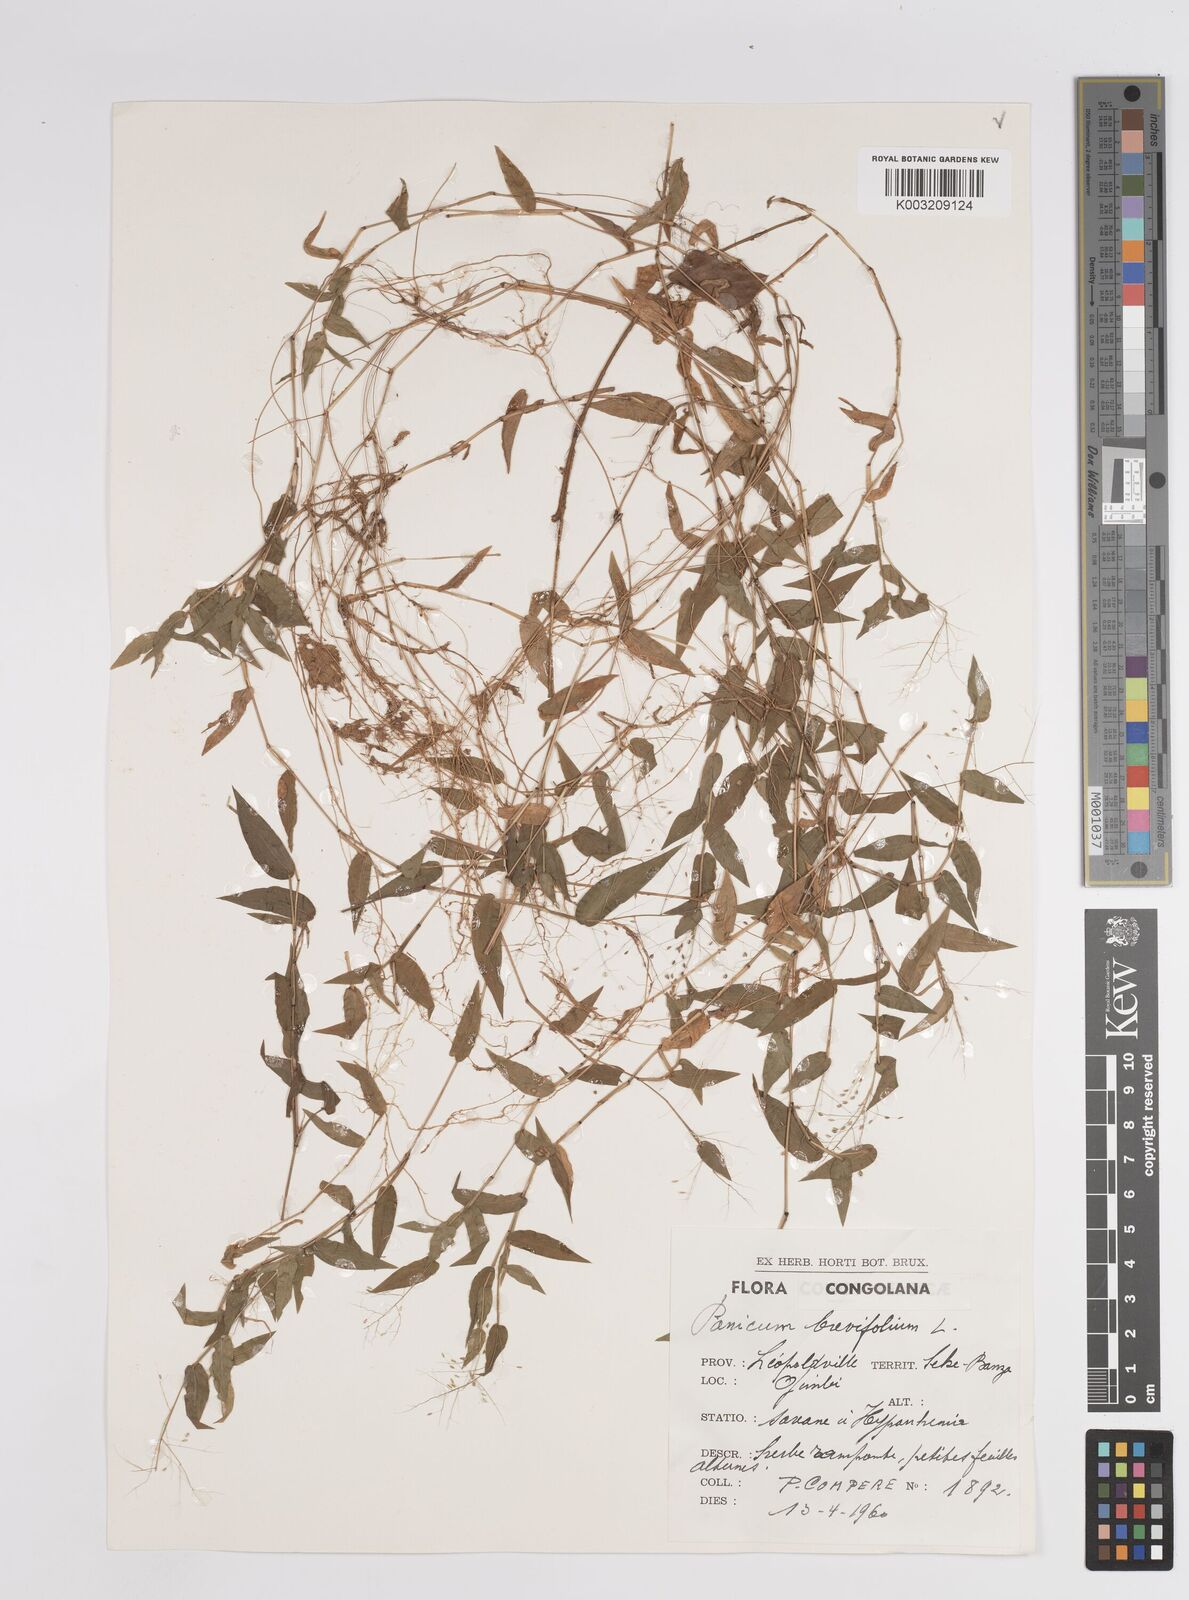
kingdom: Plantae
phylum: Tracheophyta
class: Liliopsida
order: Poales
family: Poaceae
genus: Panicum
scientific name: Panicum brevifolium
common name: Shortleaf panic grass
